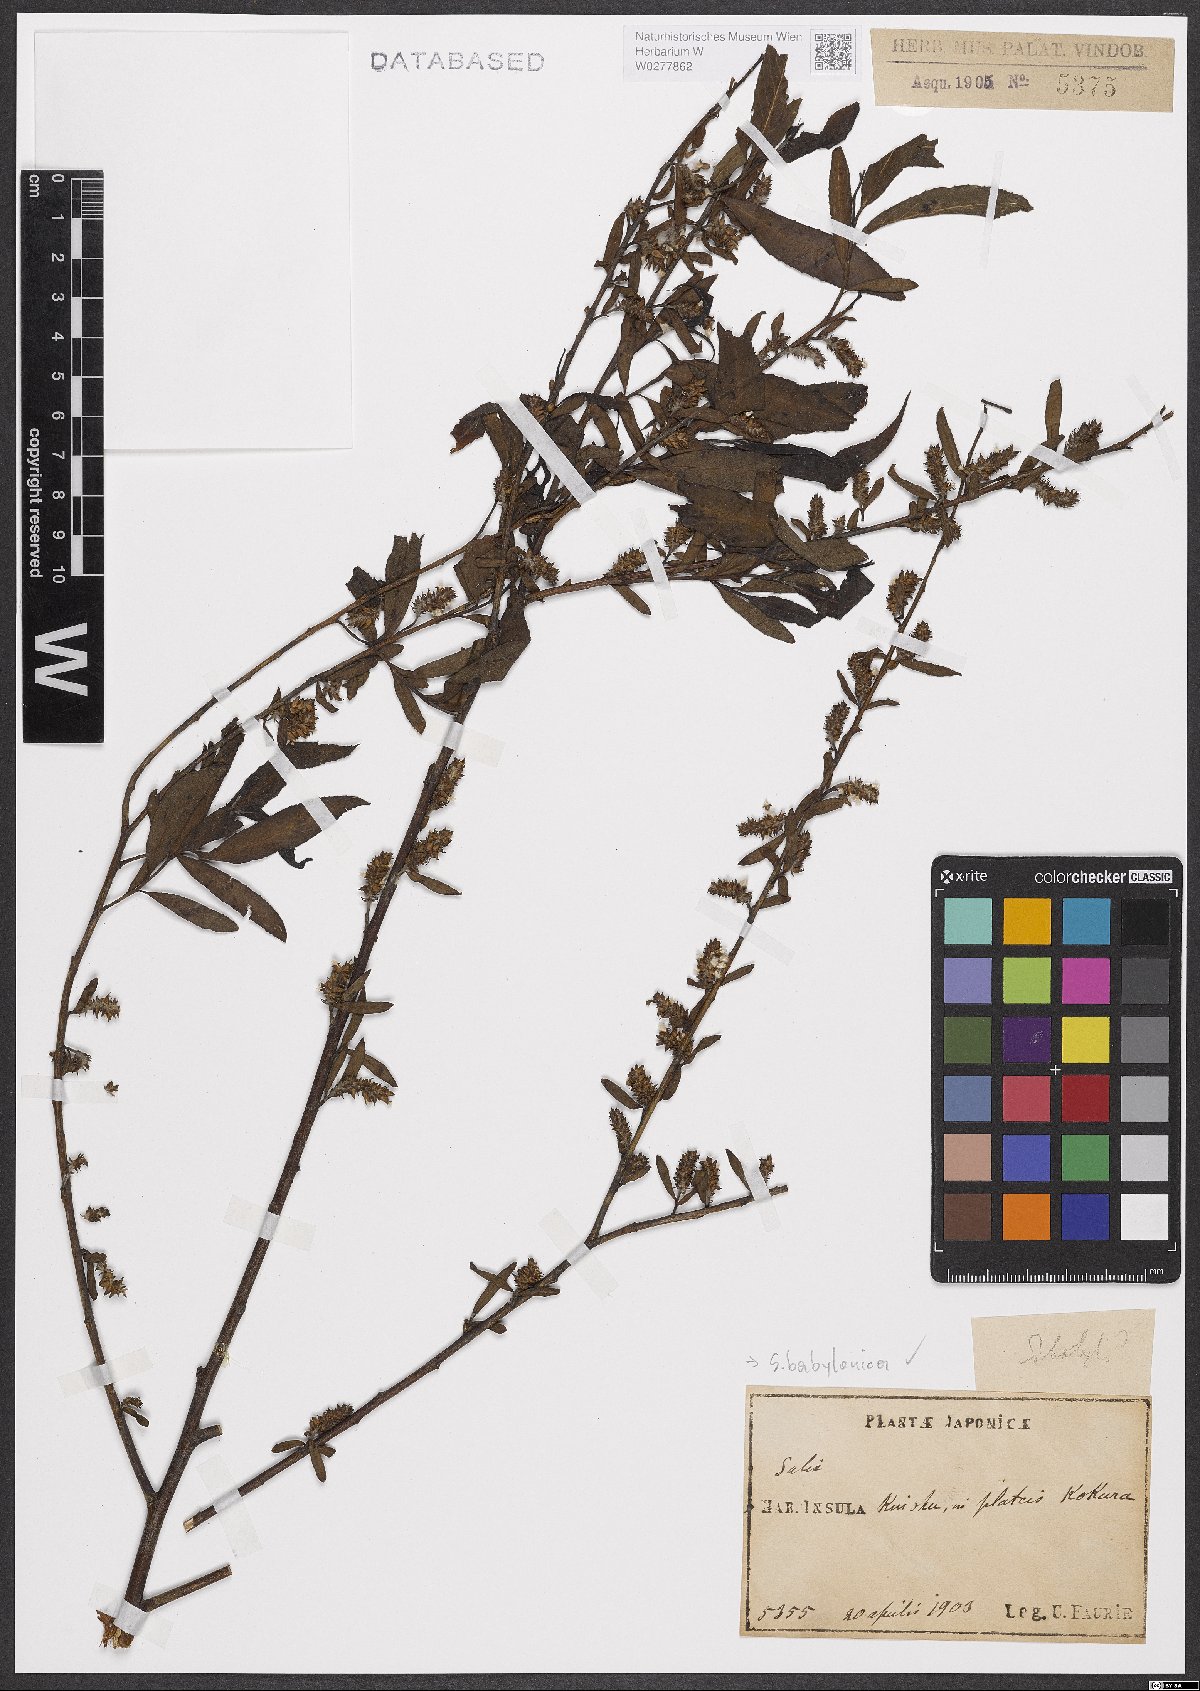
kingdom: Plantae
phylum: Tracheophyta
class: Magnoliopsida
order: Malpighiales
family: Salicaceae
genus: Salix
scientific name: Salix babylonica
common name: Weeping willow
